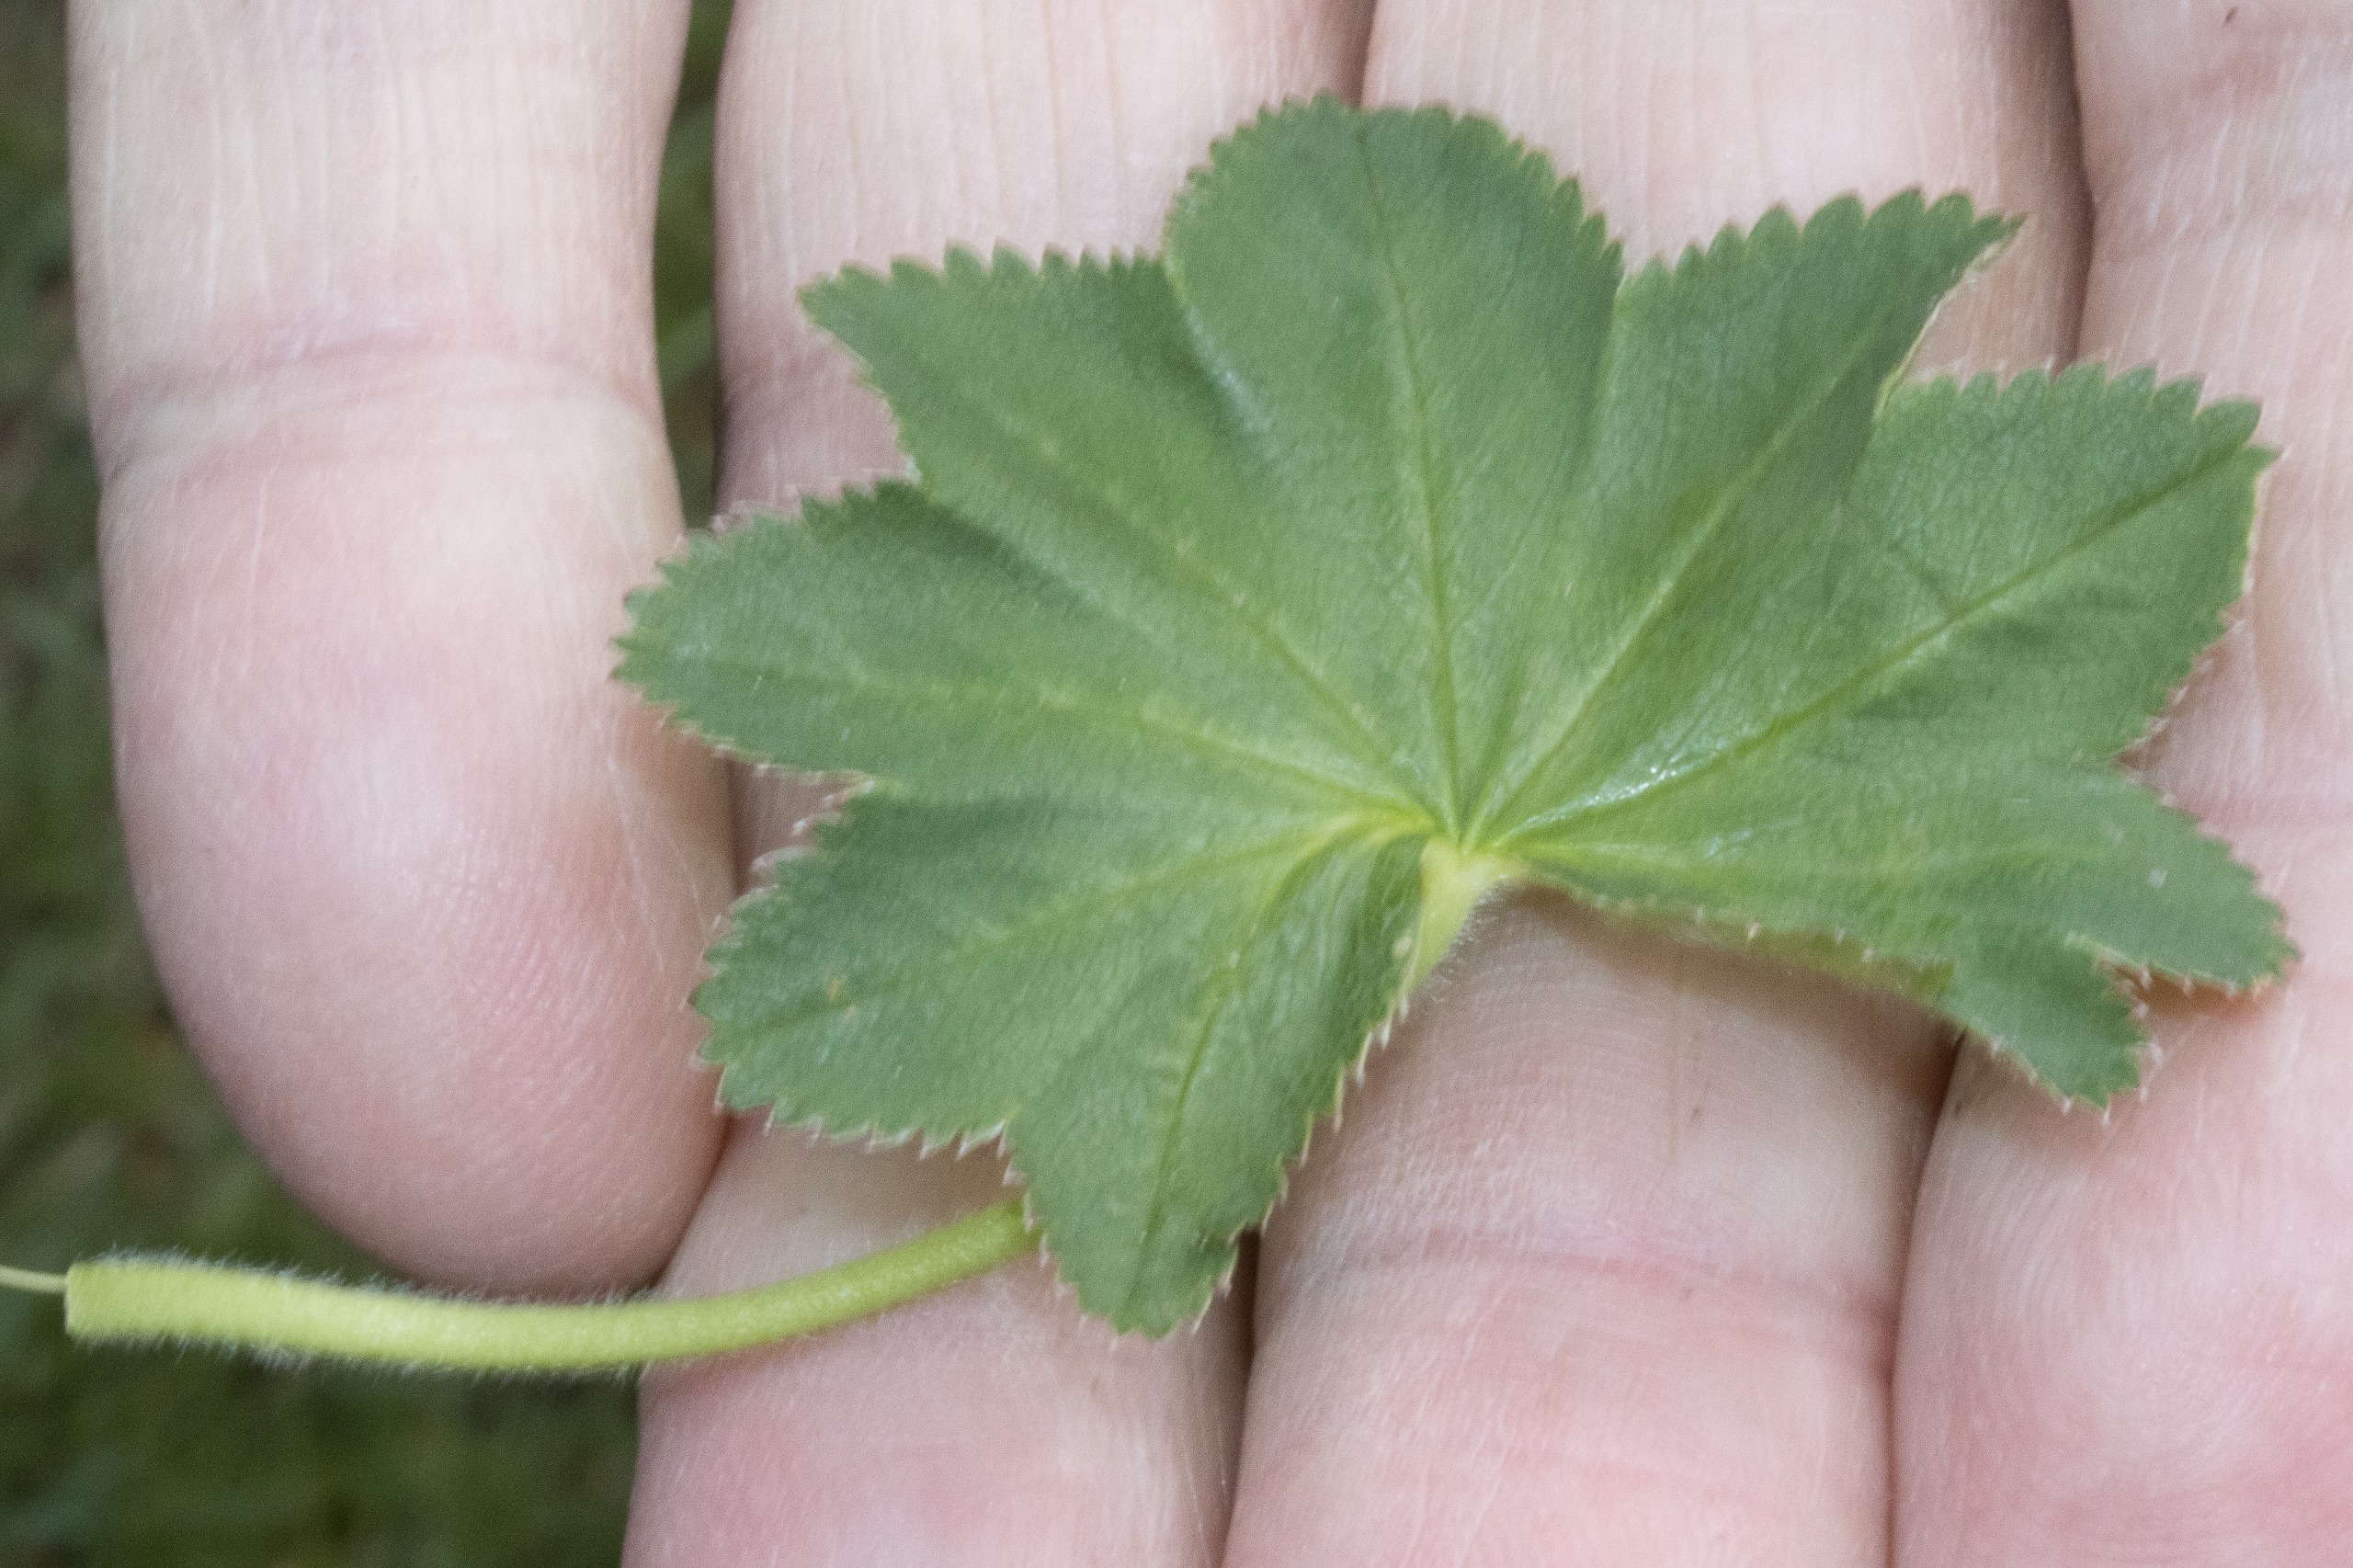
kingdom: Plantae
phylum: Tracheophyta
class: Magnoliopsida
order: Rosales
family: Rosaceae
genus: Alchemilla
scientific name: Alchemilla xanthochlora
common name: Gulgrøn løvefod
